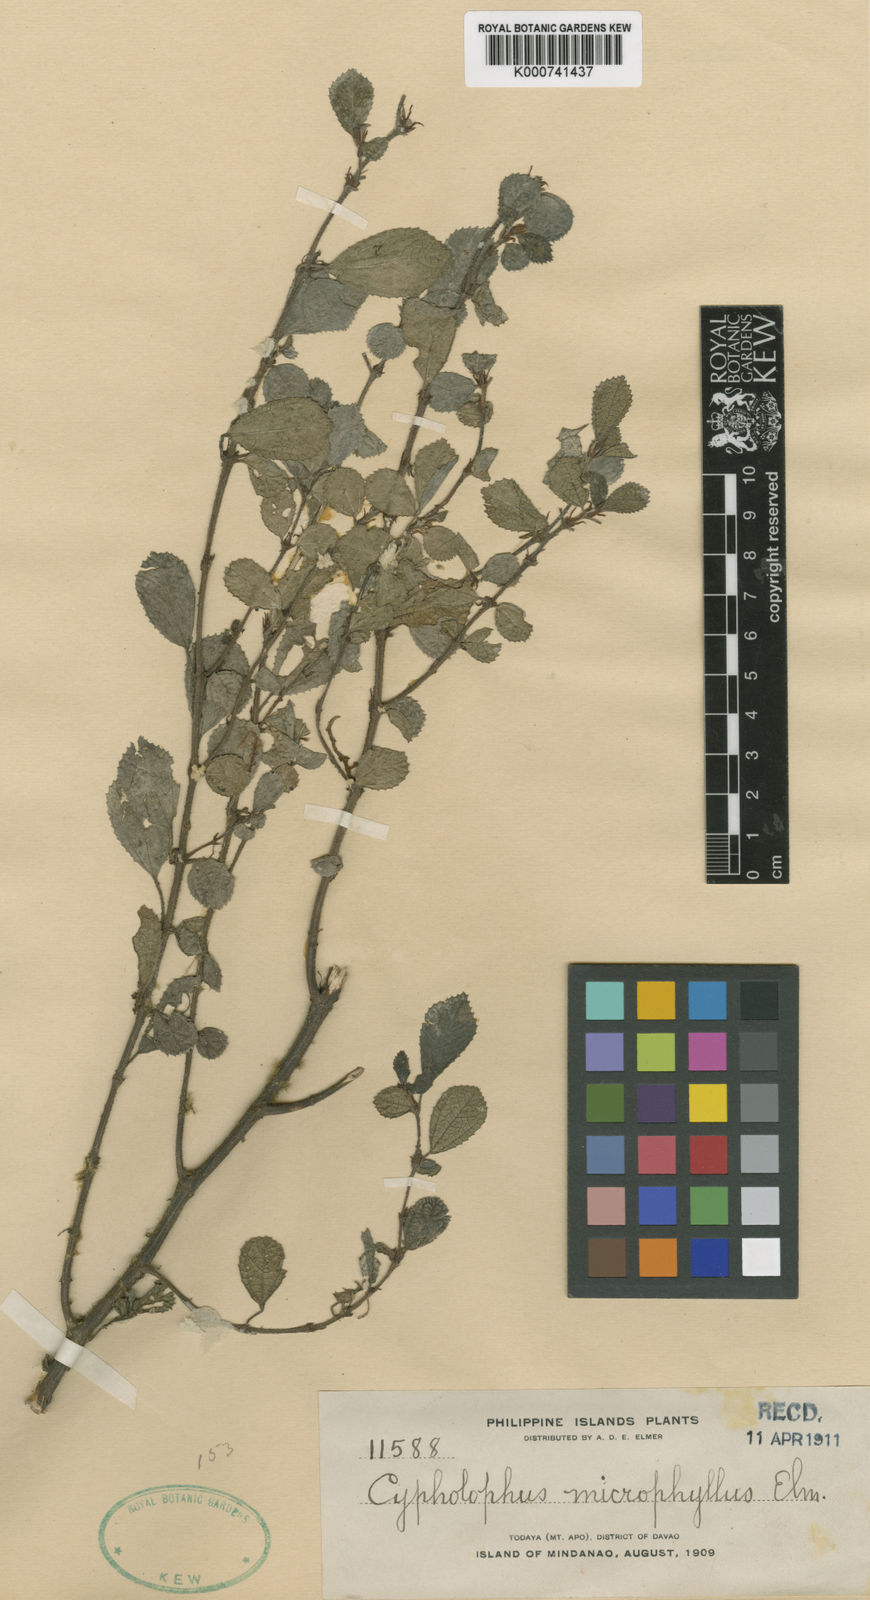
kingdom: Plantae
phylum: Tracheophyta
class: Magnoliopsida
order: Rosales
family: Urticaceae
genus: Cypholophus
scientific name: Cypholophus microphyllus
